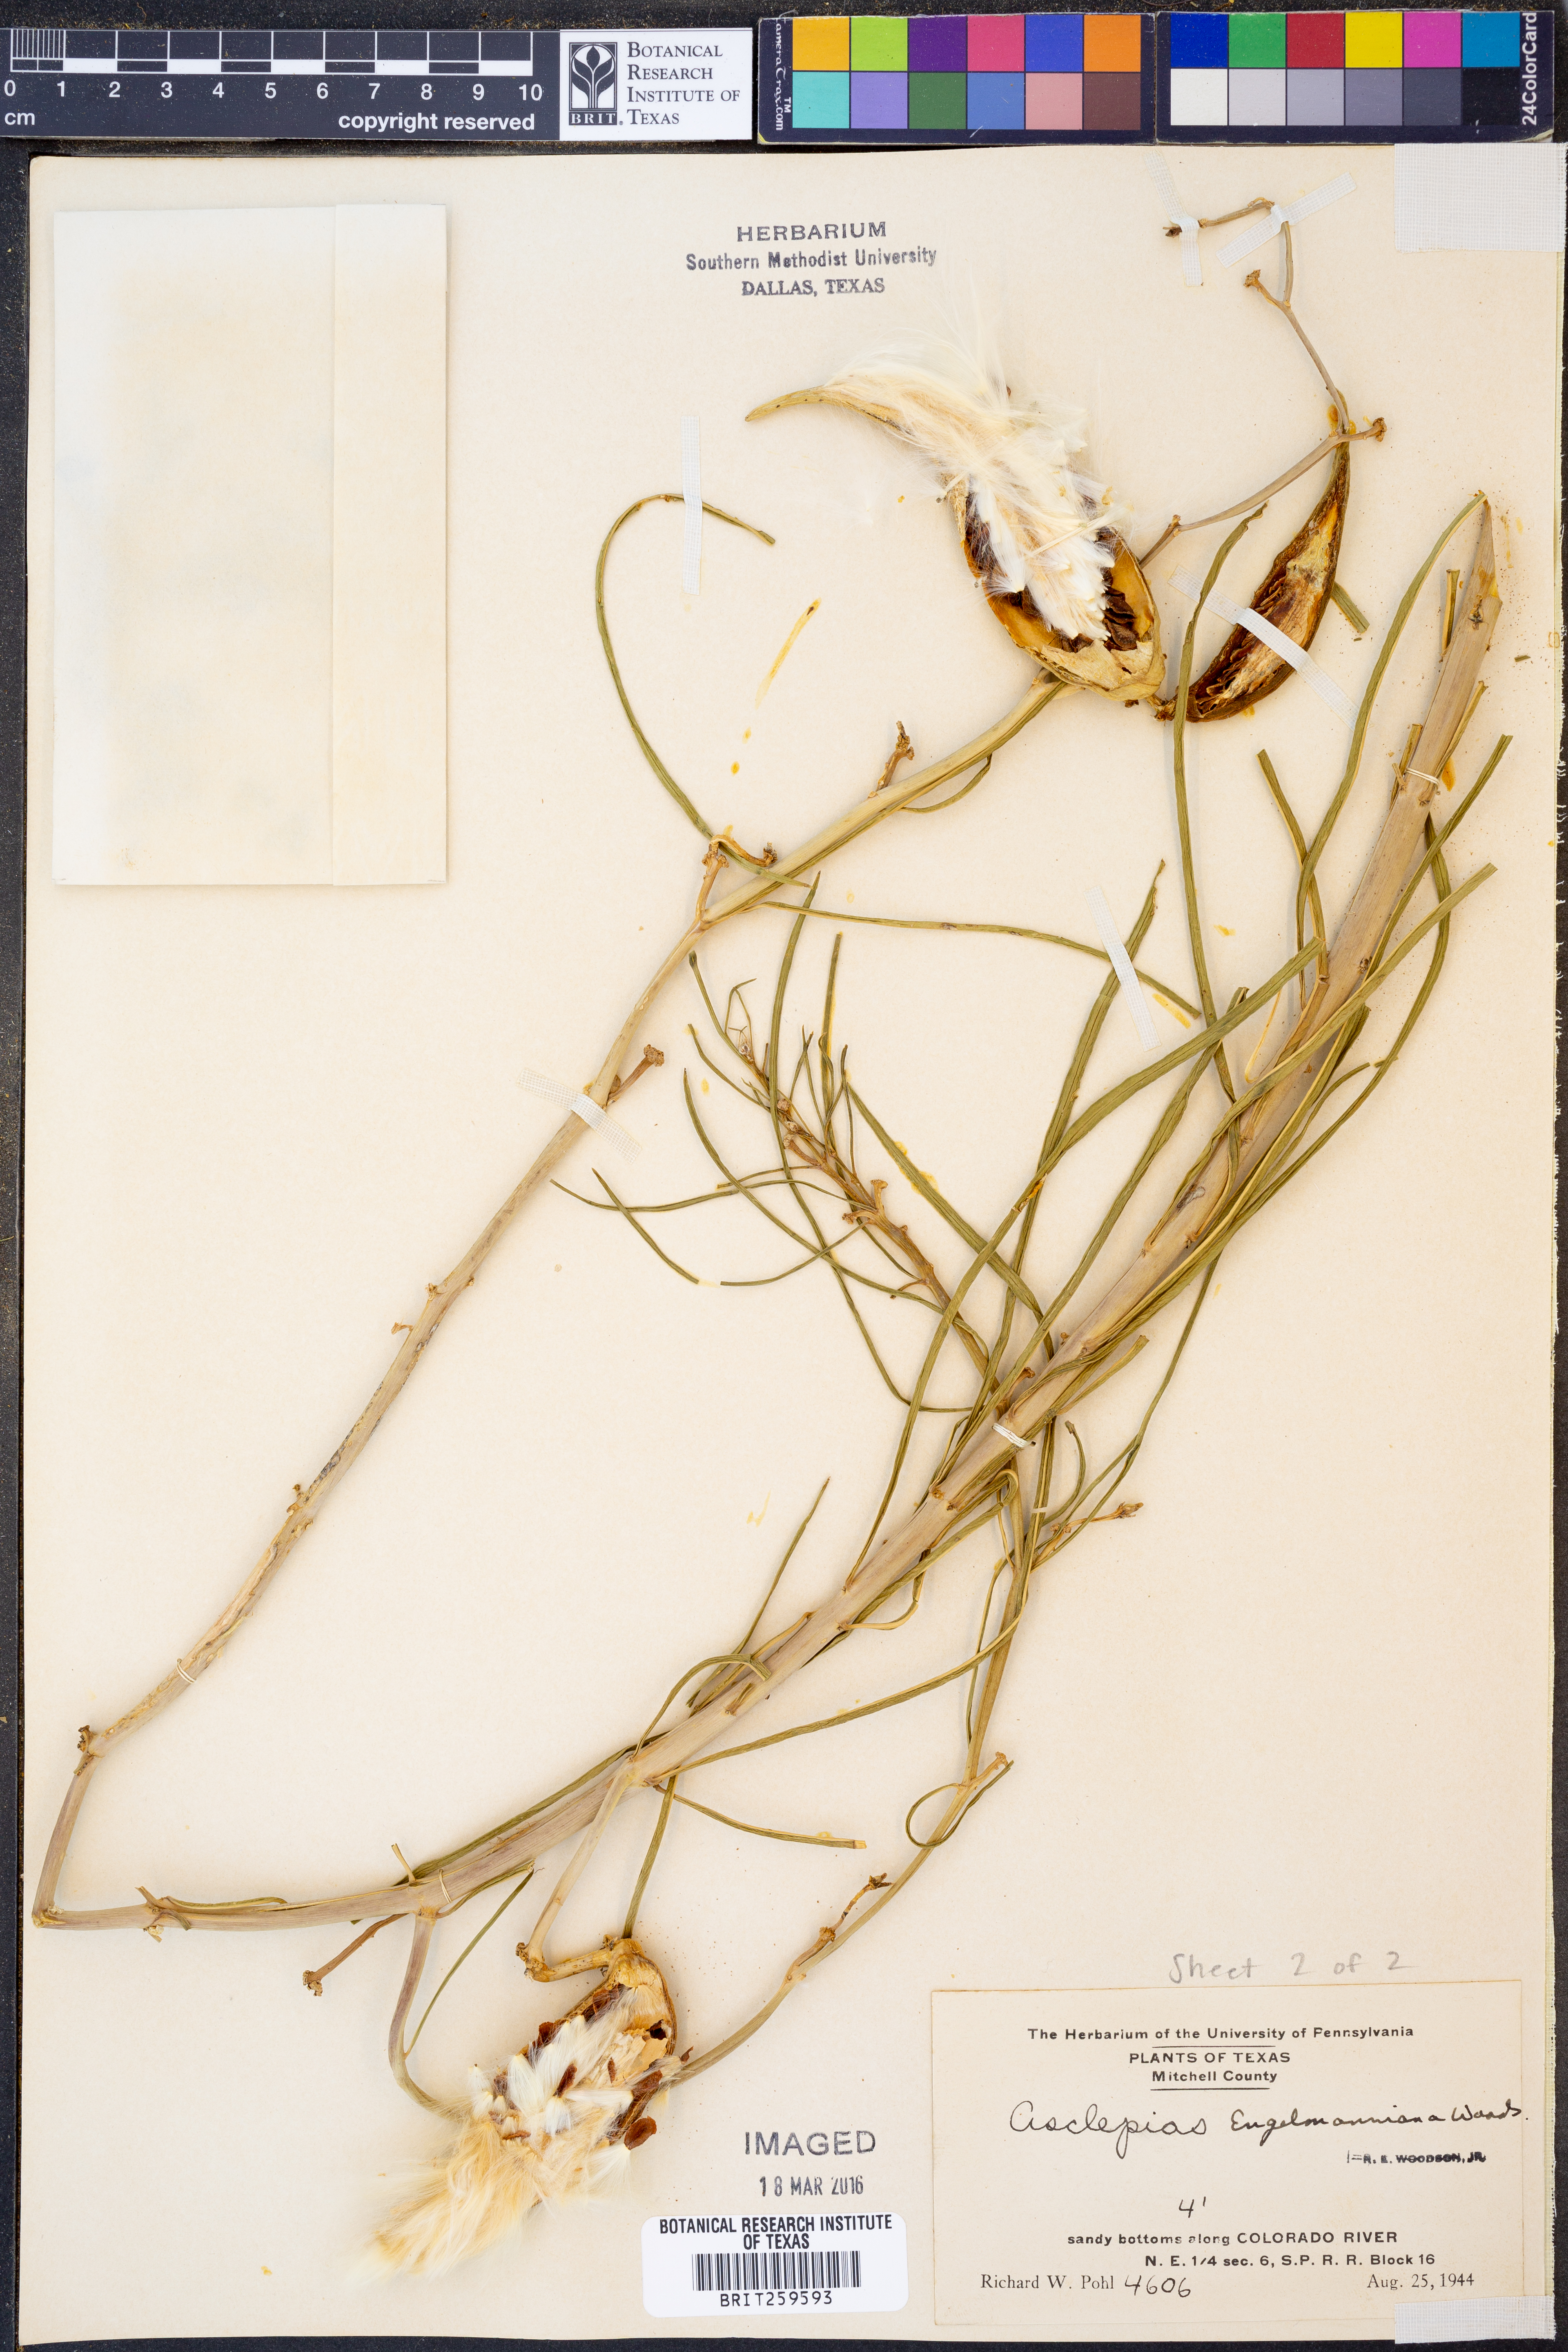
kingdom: Plantae
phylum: Tracheophyta
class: Magnoliopsida
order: Gentianales
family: Apocynaceae
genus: Asclepias
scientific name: Asclepias engelmanniana
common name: Engelmann's milkweed
